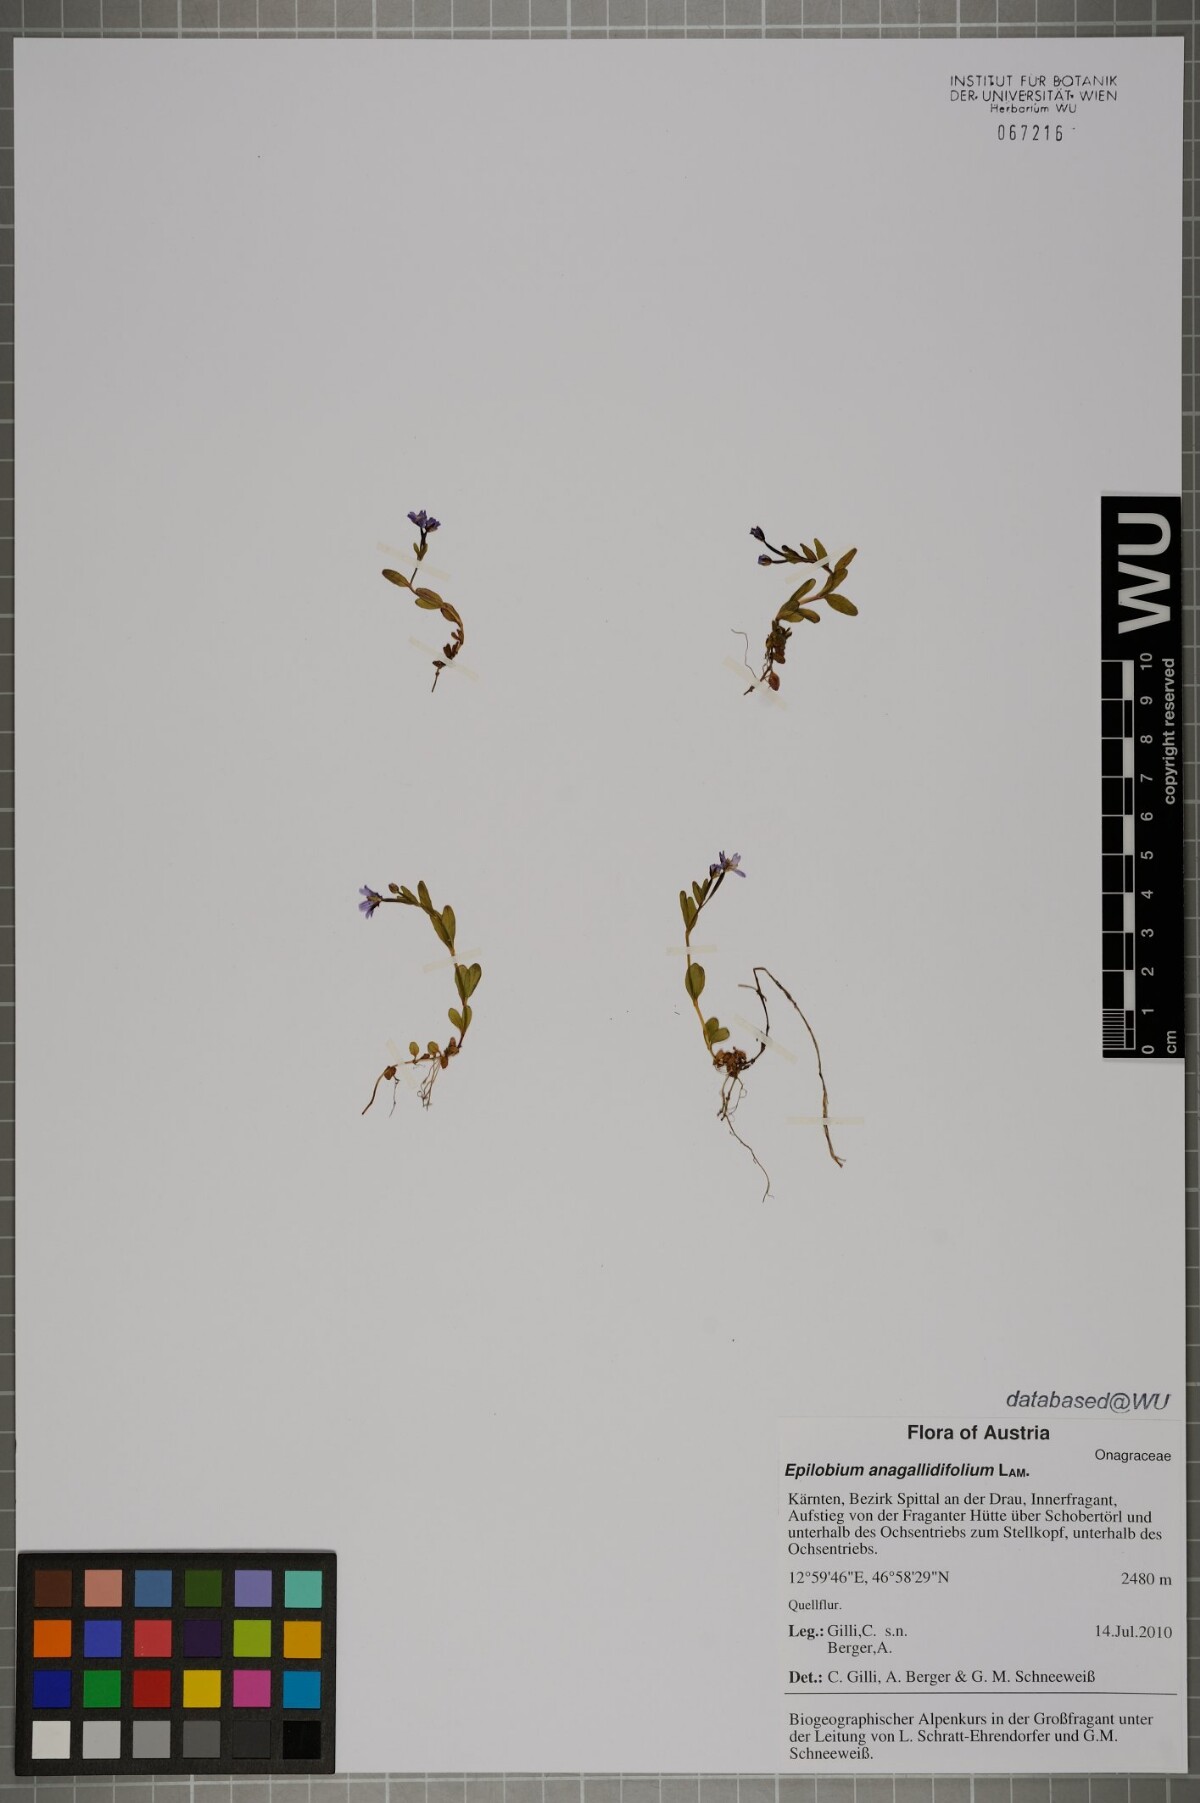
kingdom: Plantae
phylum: Tracheophyta
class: Magnoliopsida
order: Myrtales
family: Onagraceae
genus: Epilobium
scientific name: Epilobium anagallidifolium
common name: Alpine willowherb
